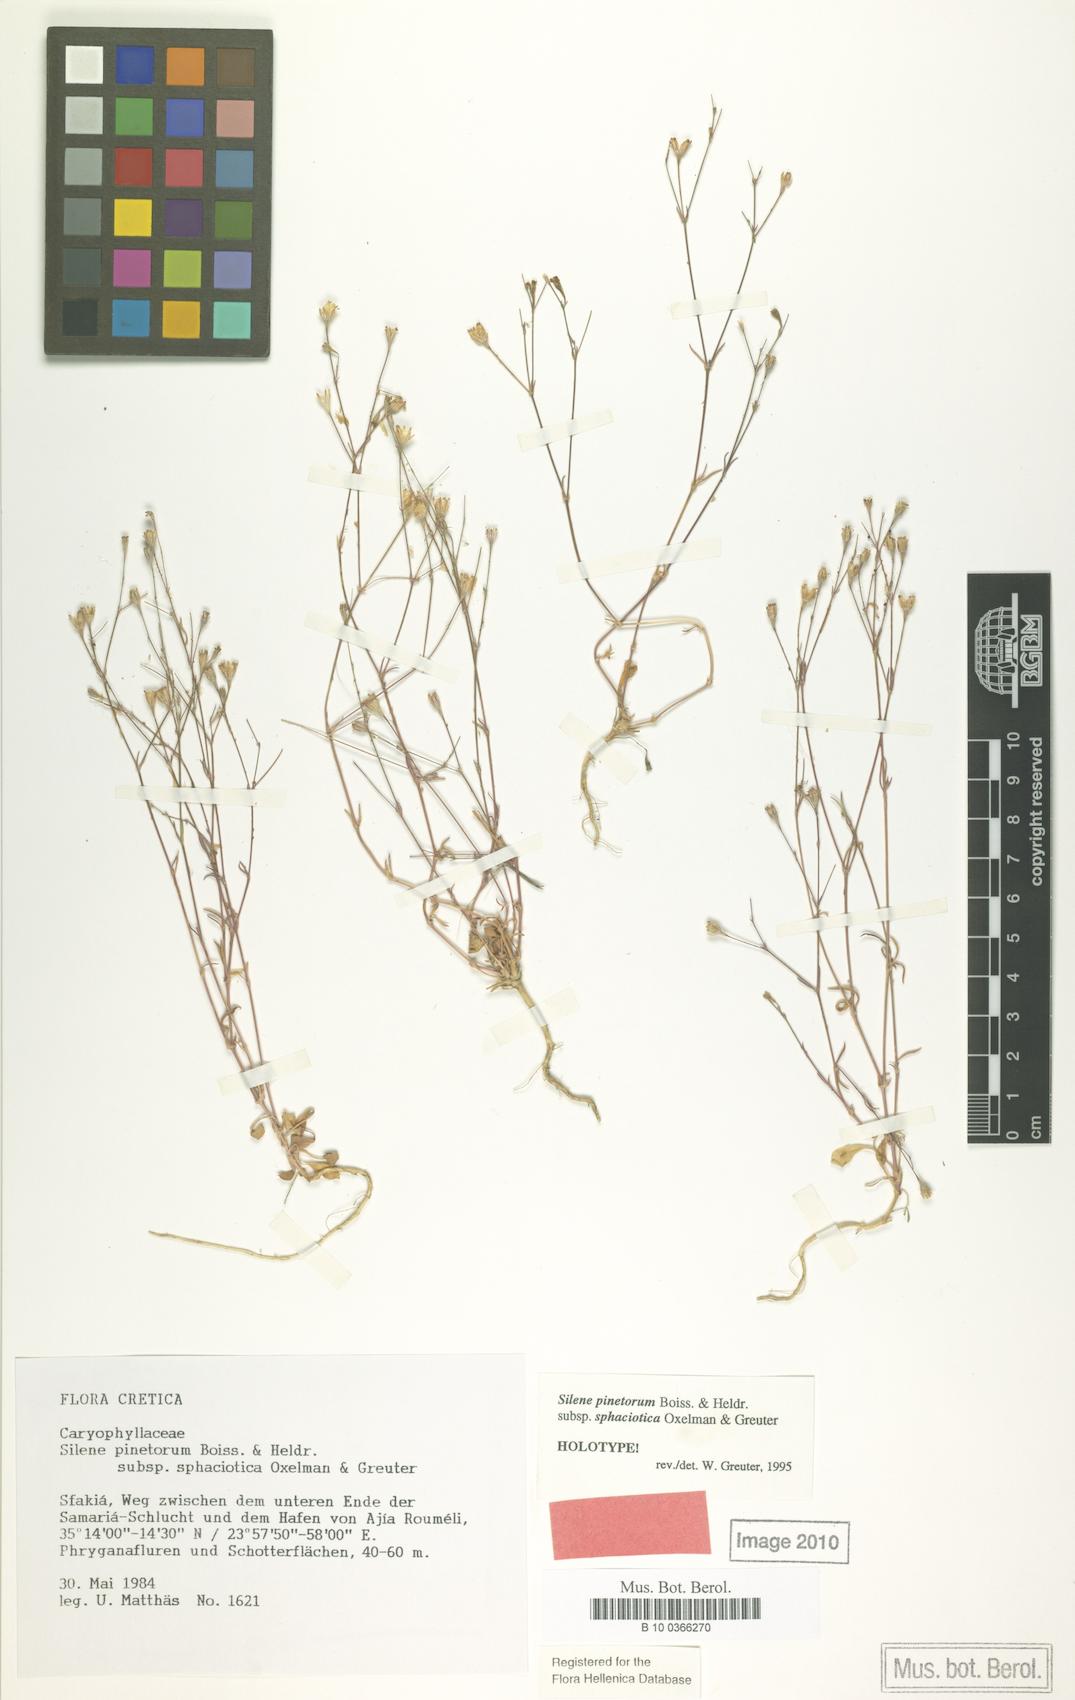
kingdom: Plantae
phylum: Tracheophyta
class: Magnoliopsida
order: Caryophyllales
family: Caryophyllaceae
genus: Silene
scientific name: Silene pinetorum
